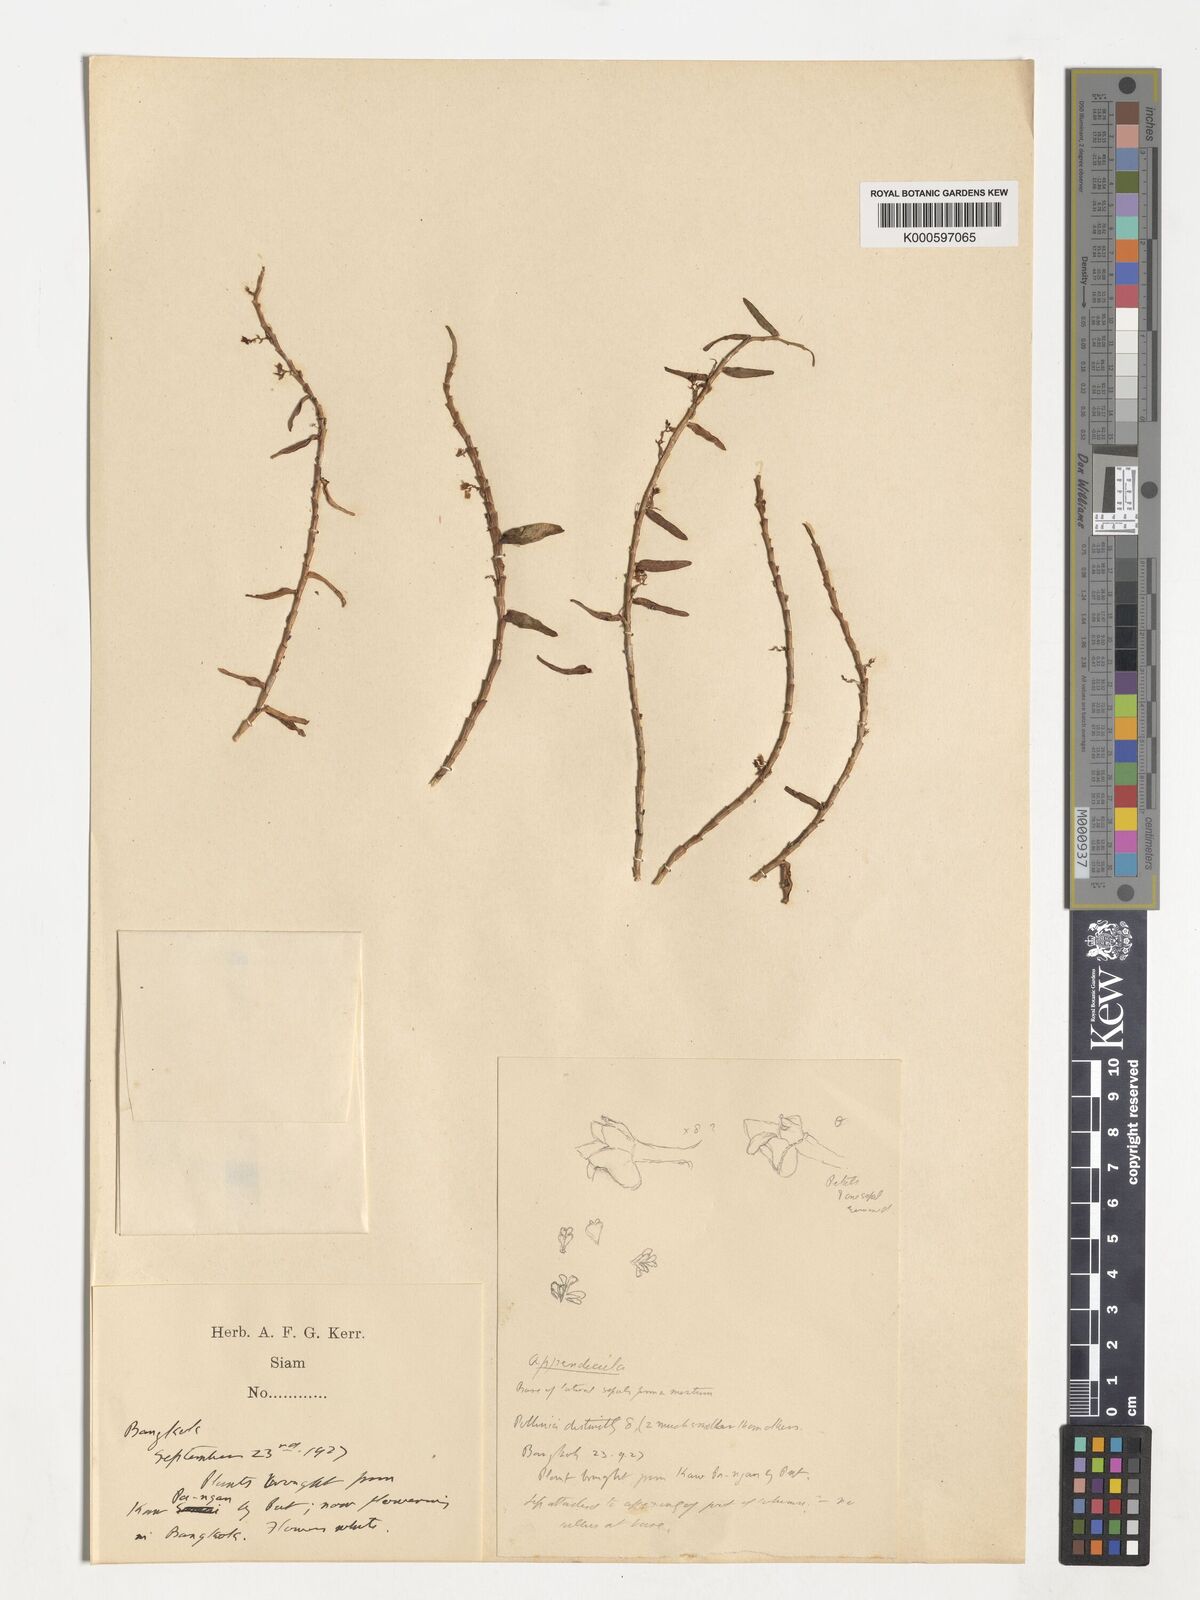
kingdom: Plantae
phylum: Tracheophyta
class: Liliopsida
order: Asparagales
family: Orchidaceae
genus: Appendicula
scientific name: Appendicula
